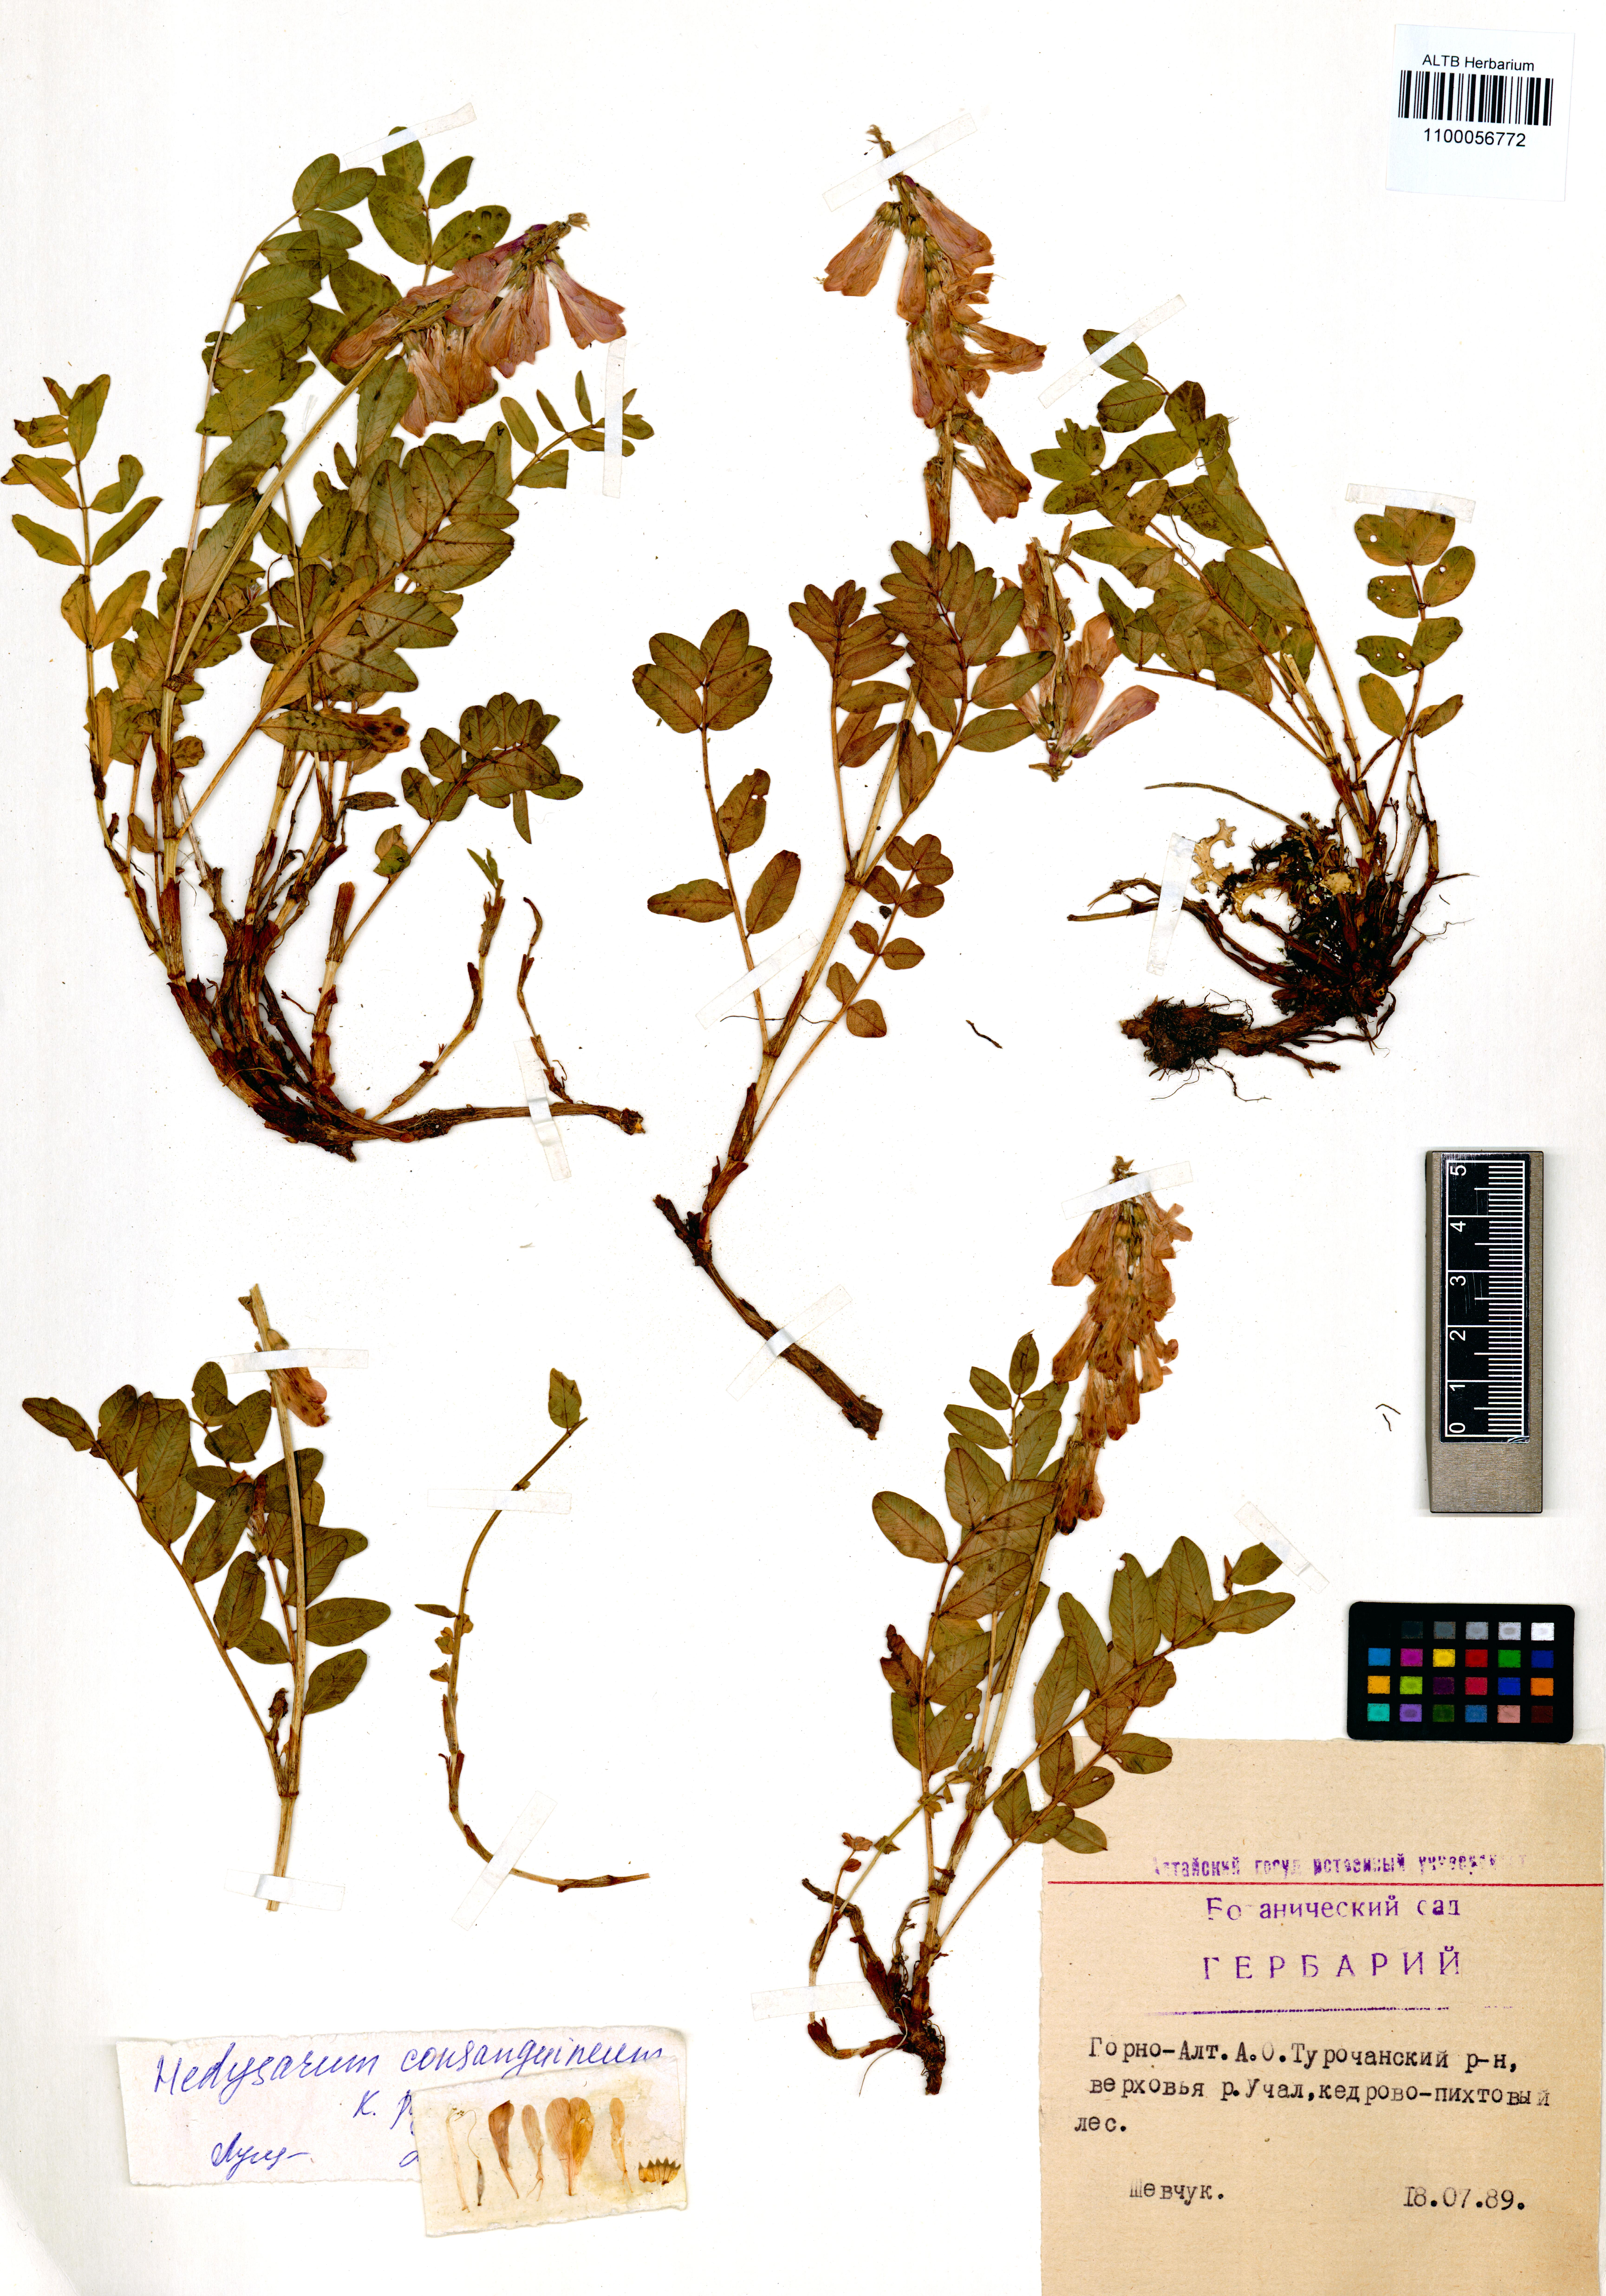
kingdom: Plantae
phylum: Tracheophyta
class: Magnoliopsida
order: Fabales
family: Fabaceae
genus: Hedysarum
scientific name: Hedysarum consanguineum
